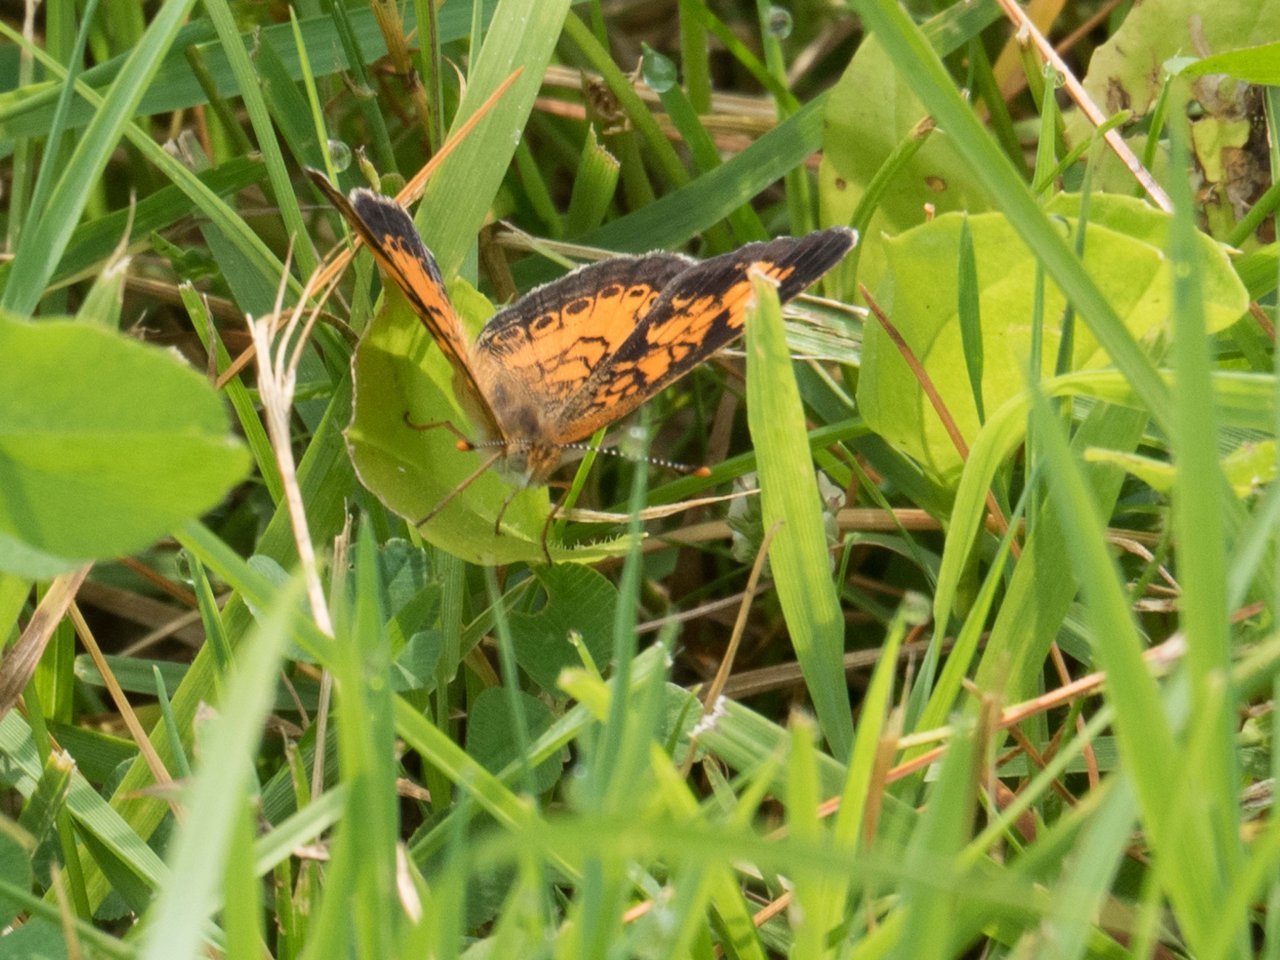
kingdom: Animalia
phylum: Arthropoda
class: Insecta
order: Lepidoptera
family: Nymphalidae
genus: Phyciodes
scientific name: Phyciodes
